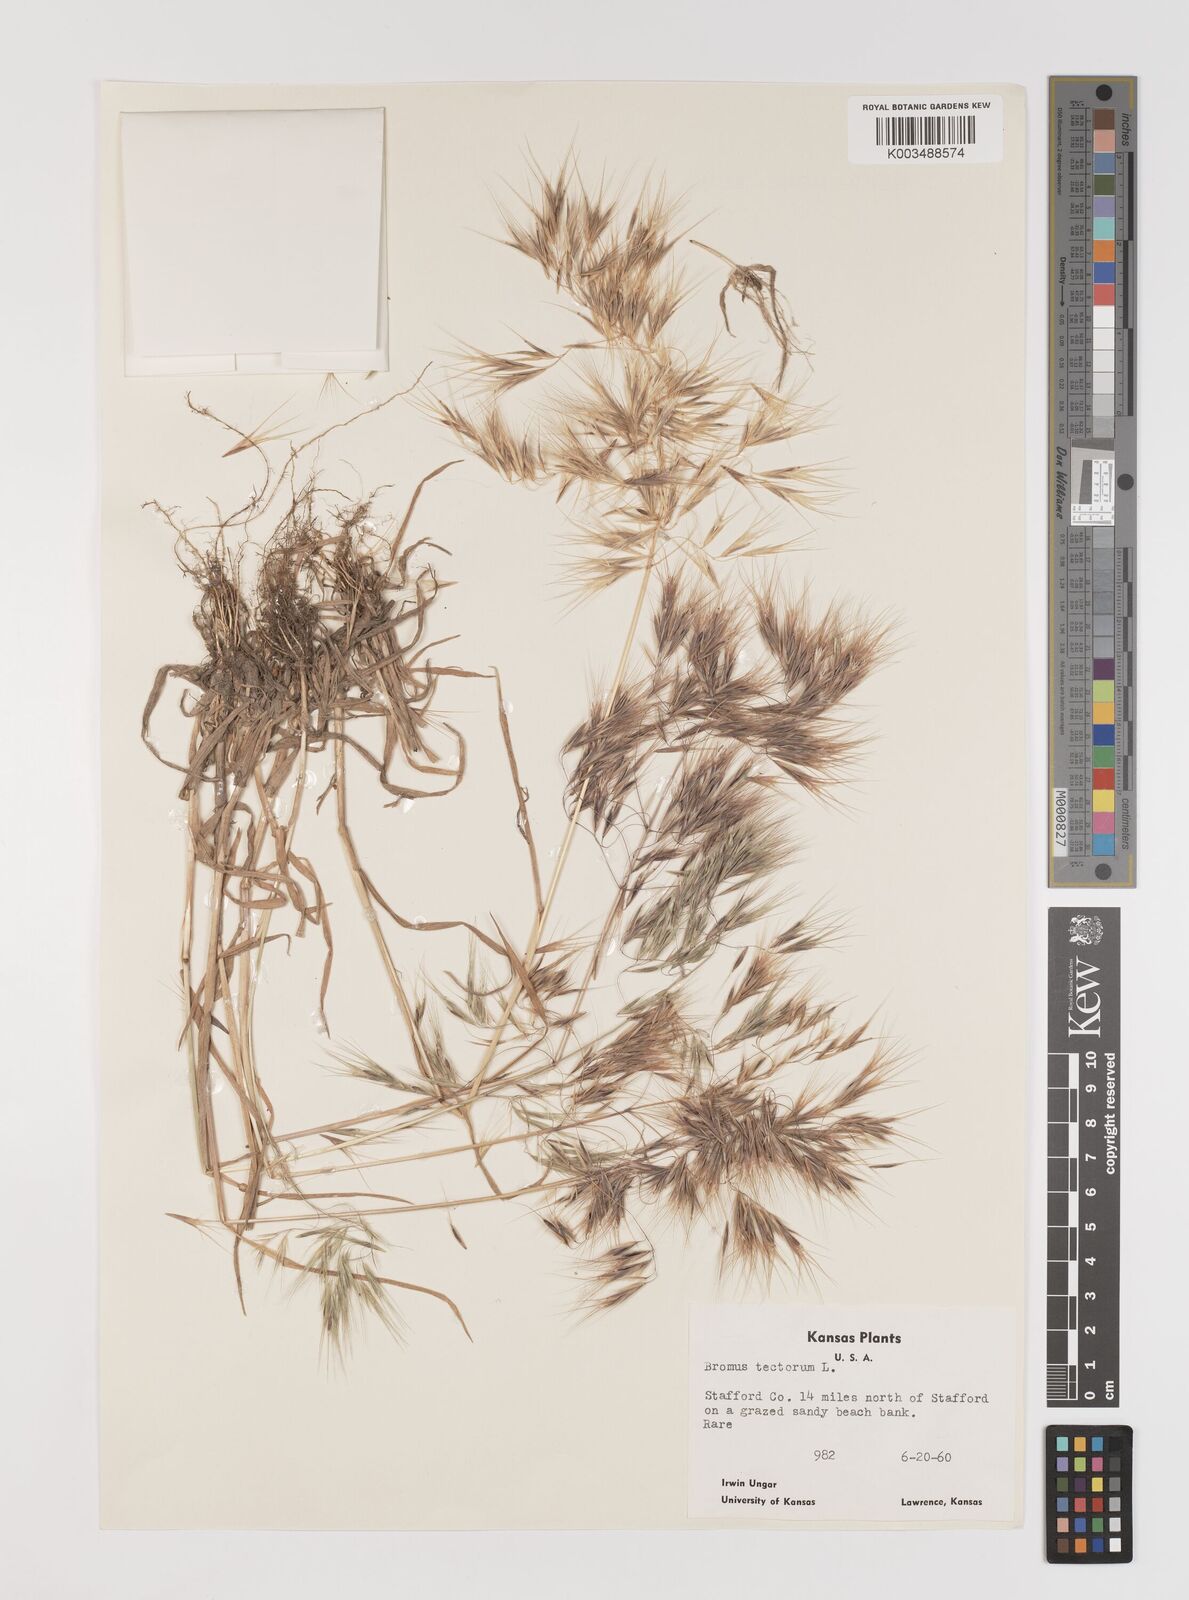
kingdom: Plantae
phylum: Tracheophyta
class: Liliopsida
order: Poales
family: Poaceae
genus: Bromus
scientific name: Bromus tectorum
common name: Cheatgrass
